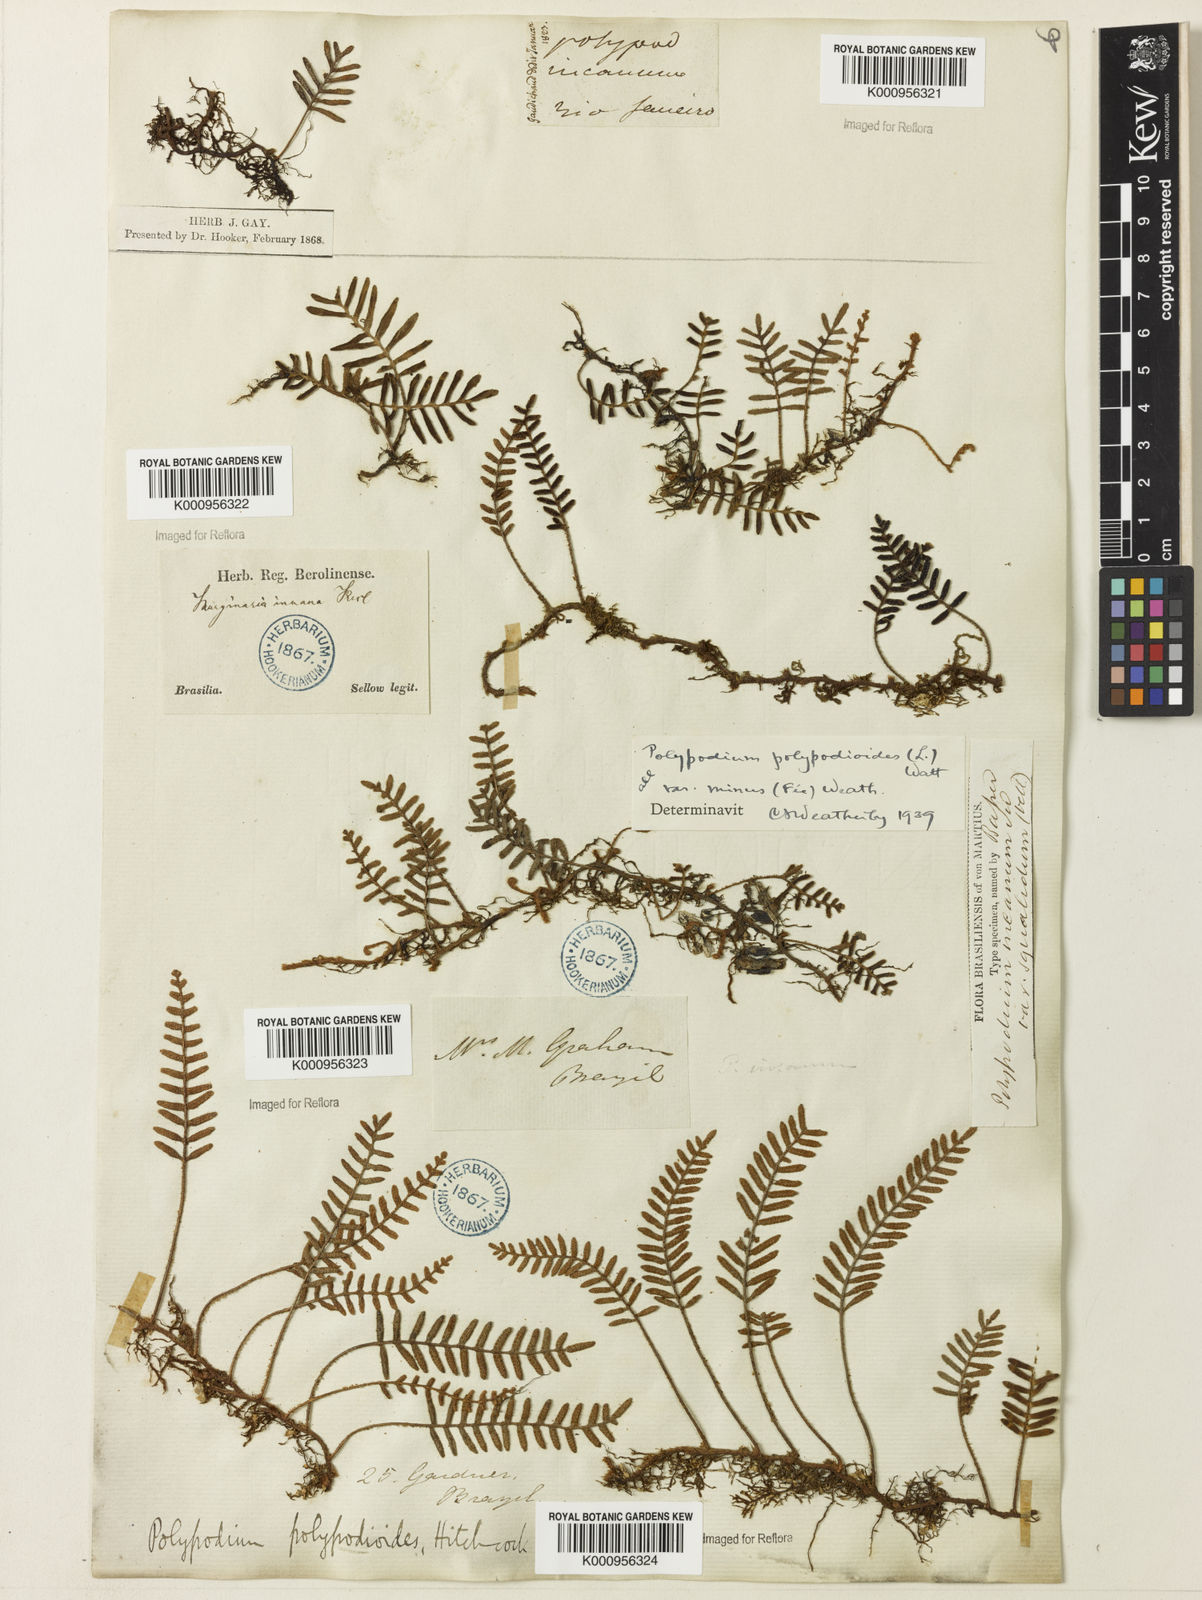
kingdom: Plantae
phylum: Tracheophyta
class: Polypodiopsida
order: Polypodiales
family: Polypodiaceae
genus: Pleopeltis
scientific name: Pleopeltis polypodioides
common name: Resurrection fern
